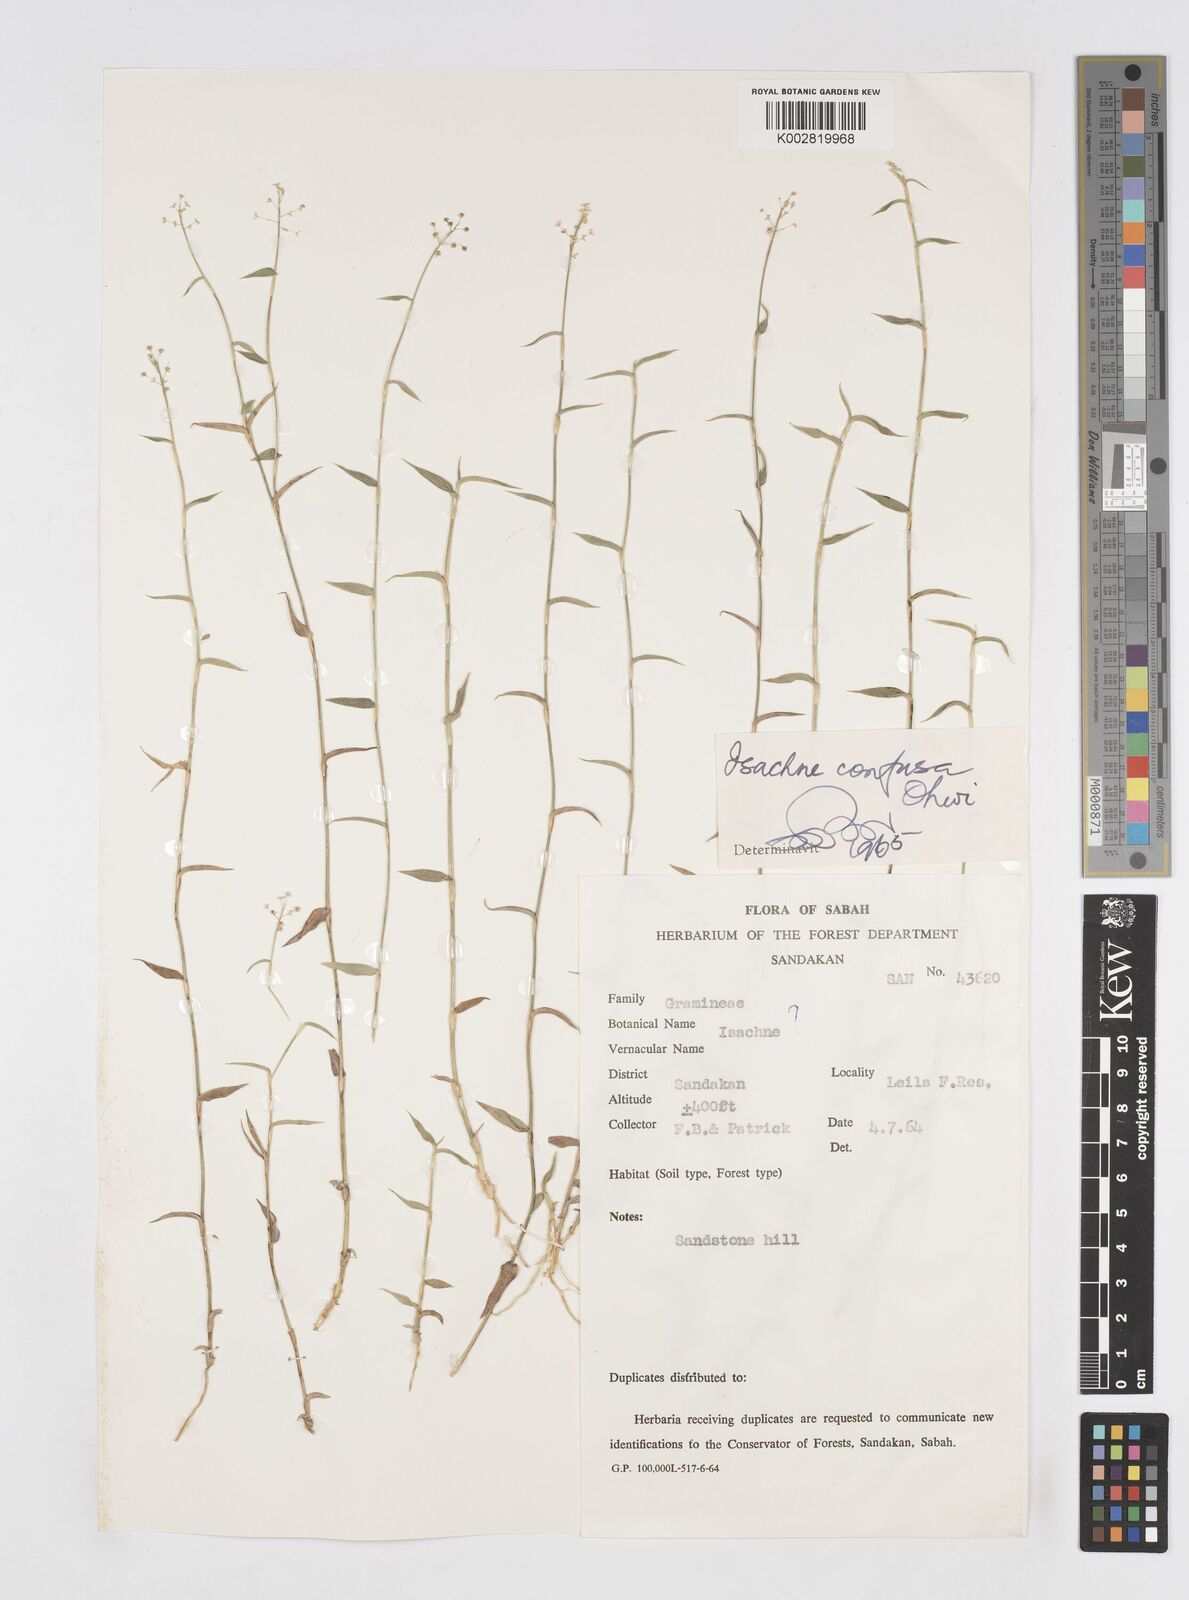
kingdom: Plantae
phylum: Tracheophyta
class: Liliopsida
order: Poales
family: Poaceae
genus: Isachne
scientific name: Isachne confusa
